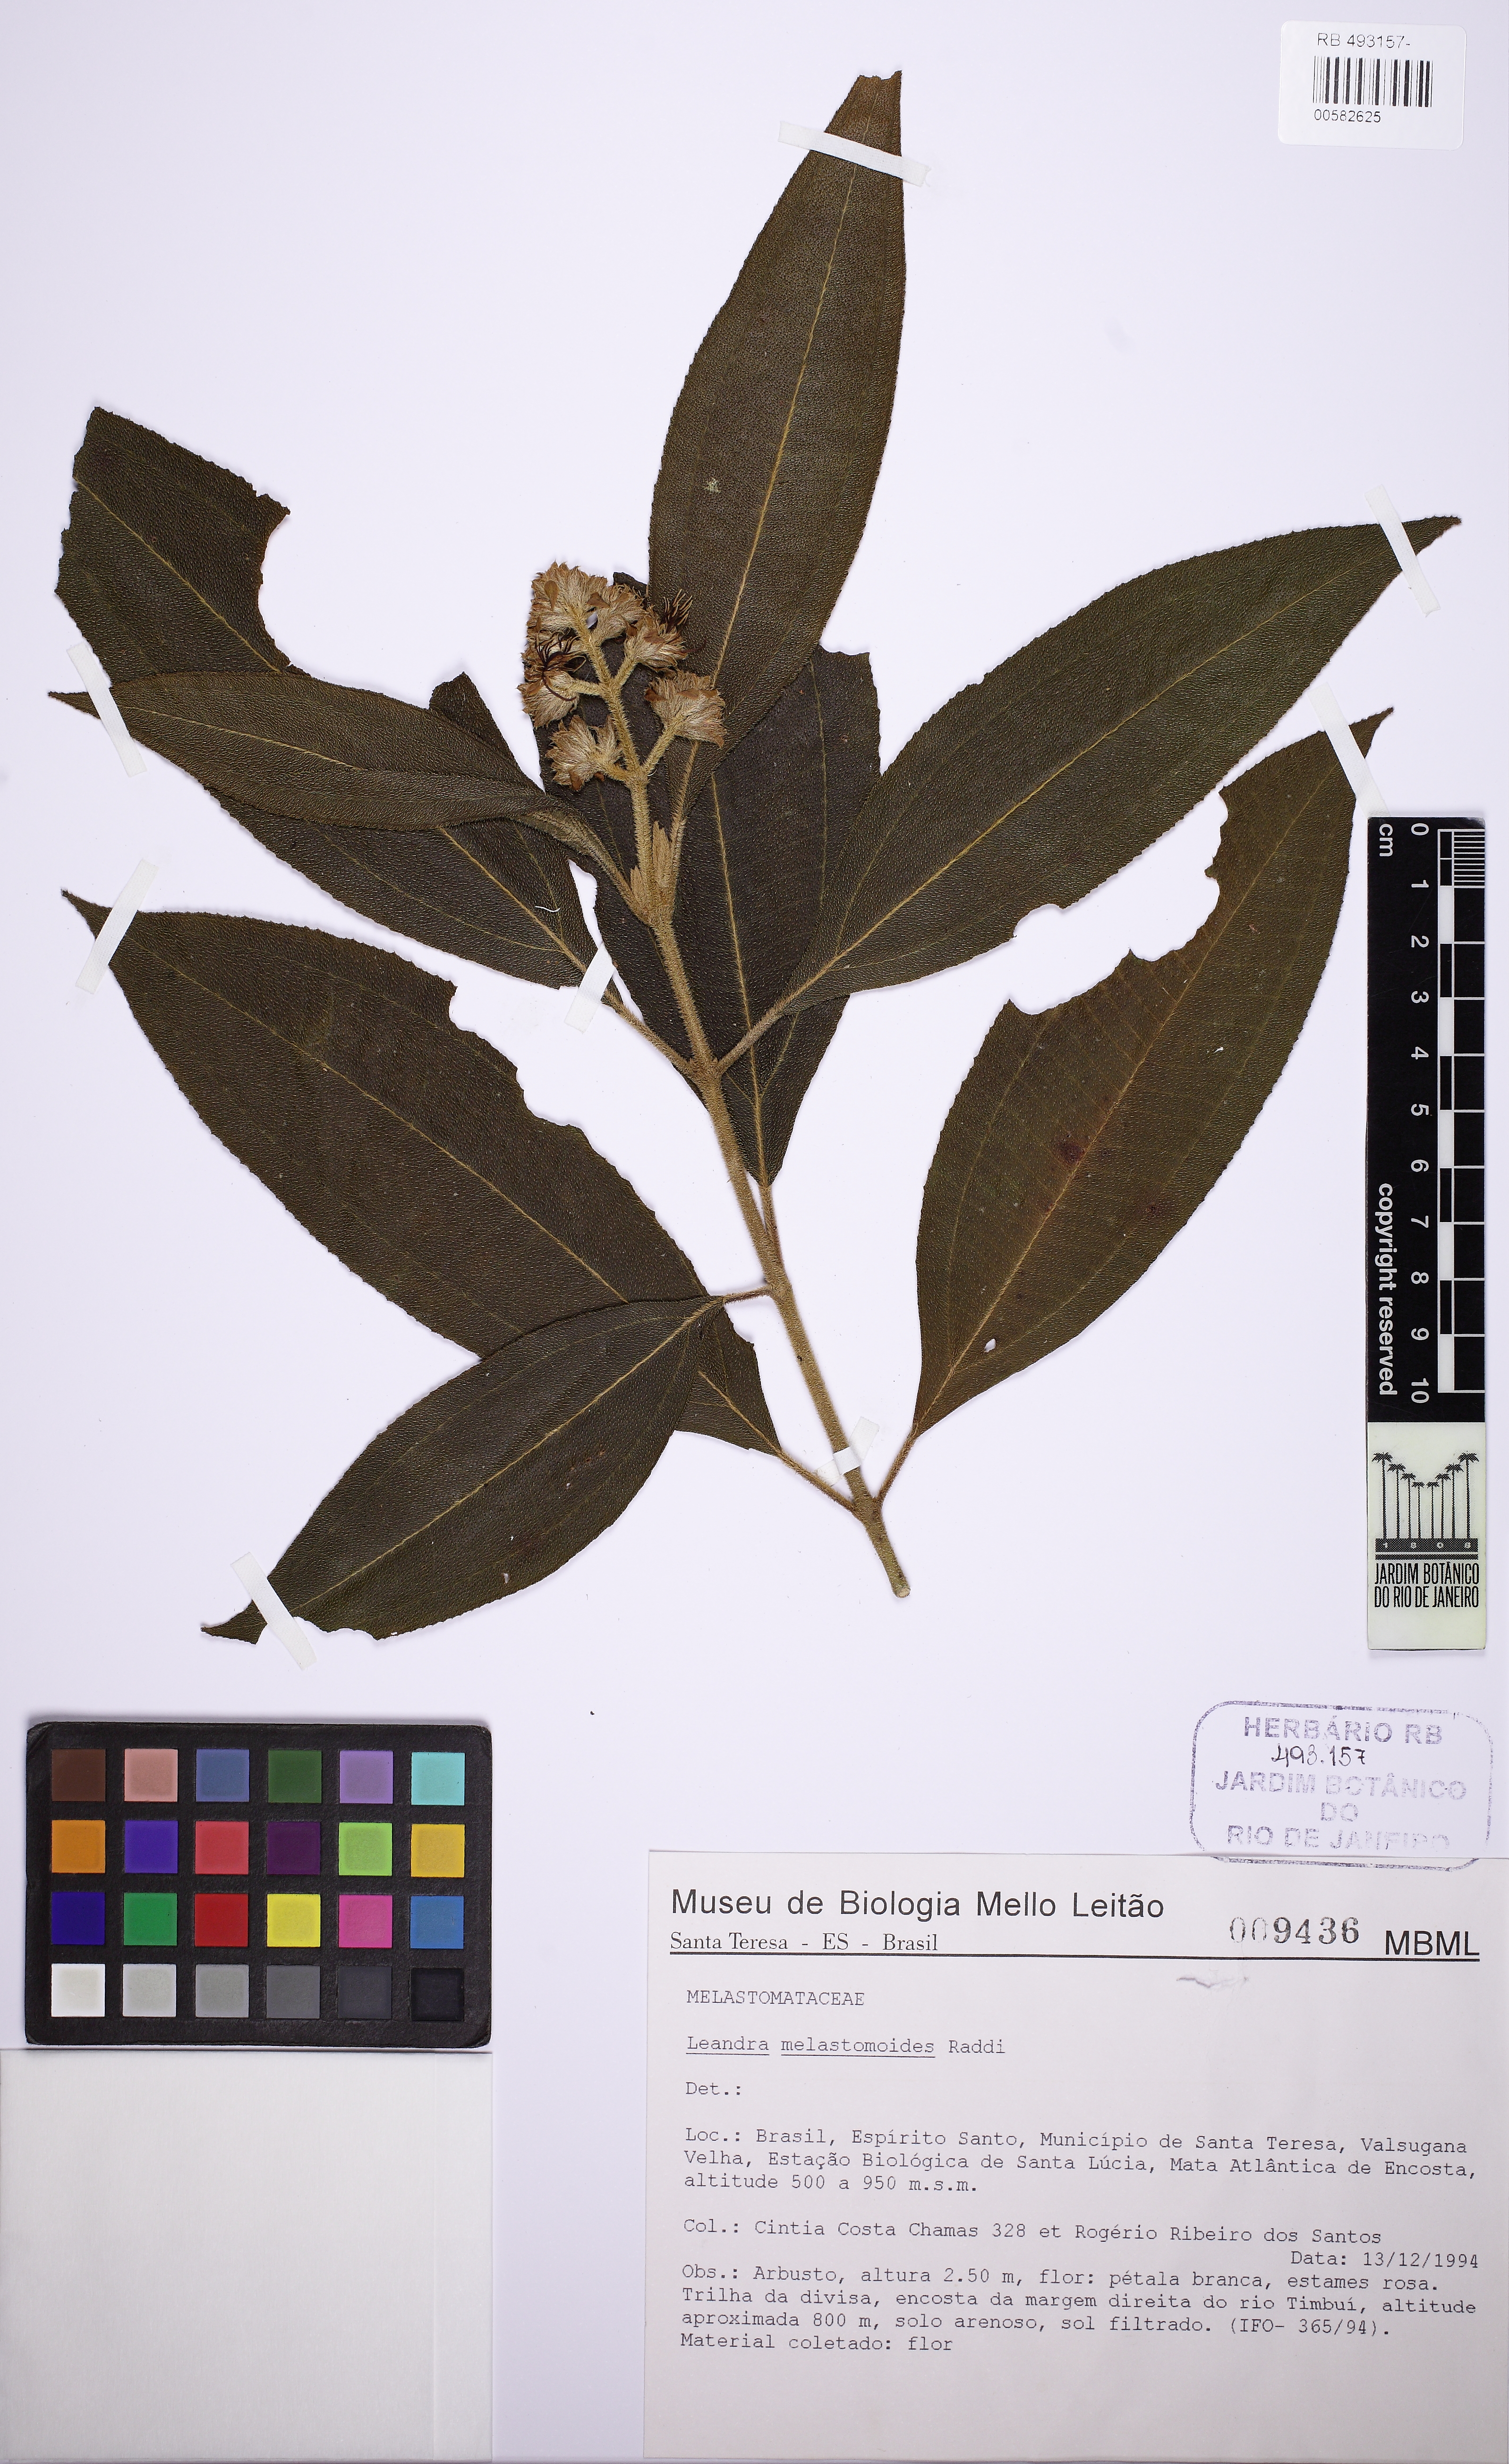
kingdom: Plantae
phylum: Tracheophyta
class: Magnoliopsida
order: Myrtales
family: Melastomataceae
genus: Miconia
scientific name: Miconia melastomoides
